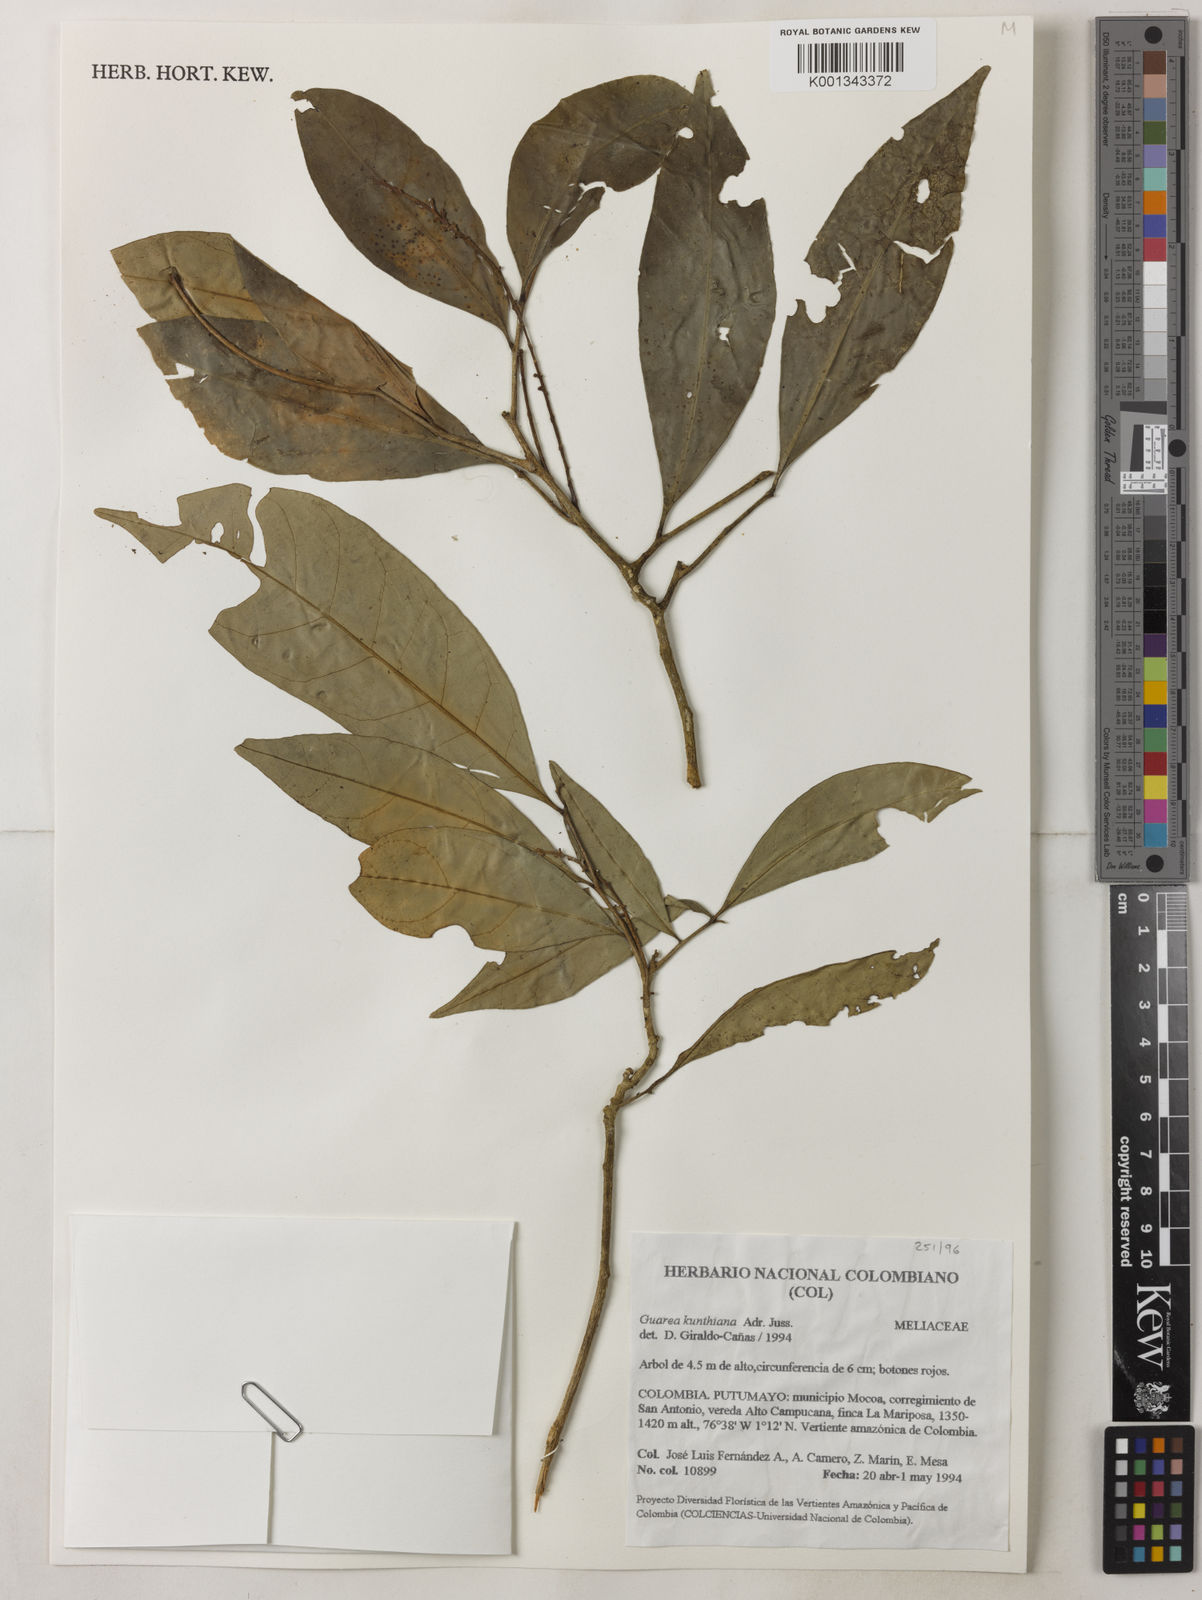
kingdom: Plantae
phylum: Tracheophyta
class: Magnoliopsida
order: Sapindales
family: Meliaceae
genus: Guarea
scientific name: Guarea kunthiana
